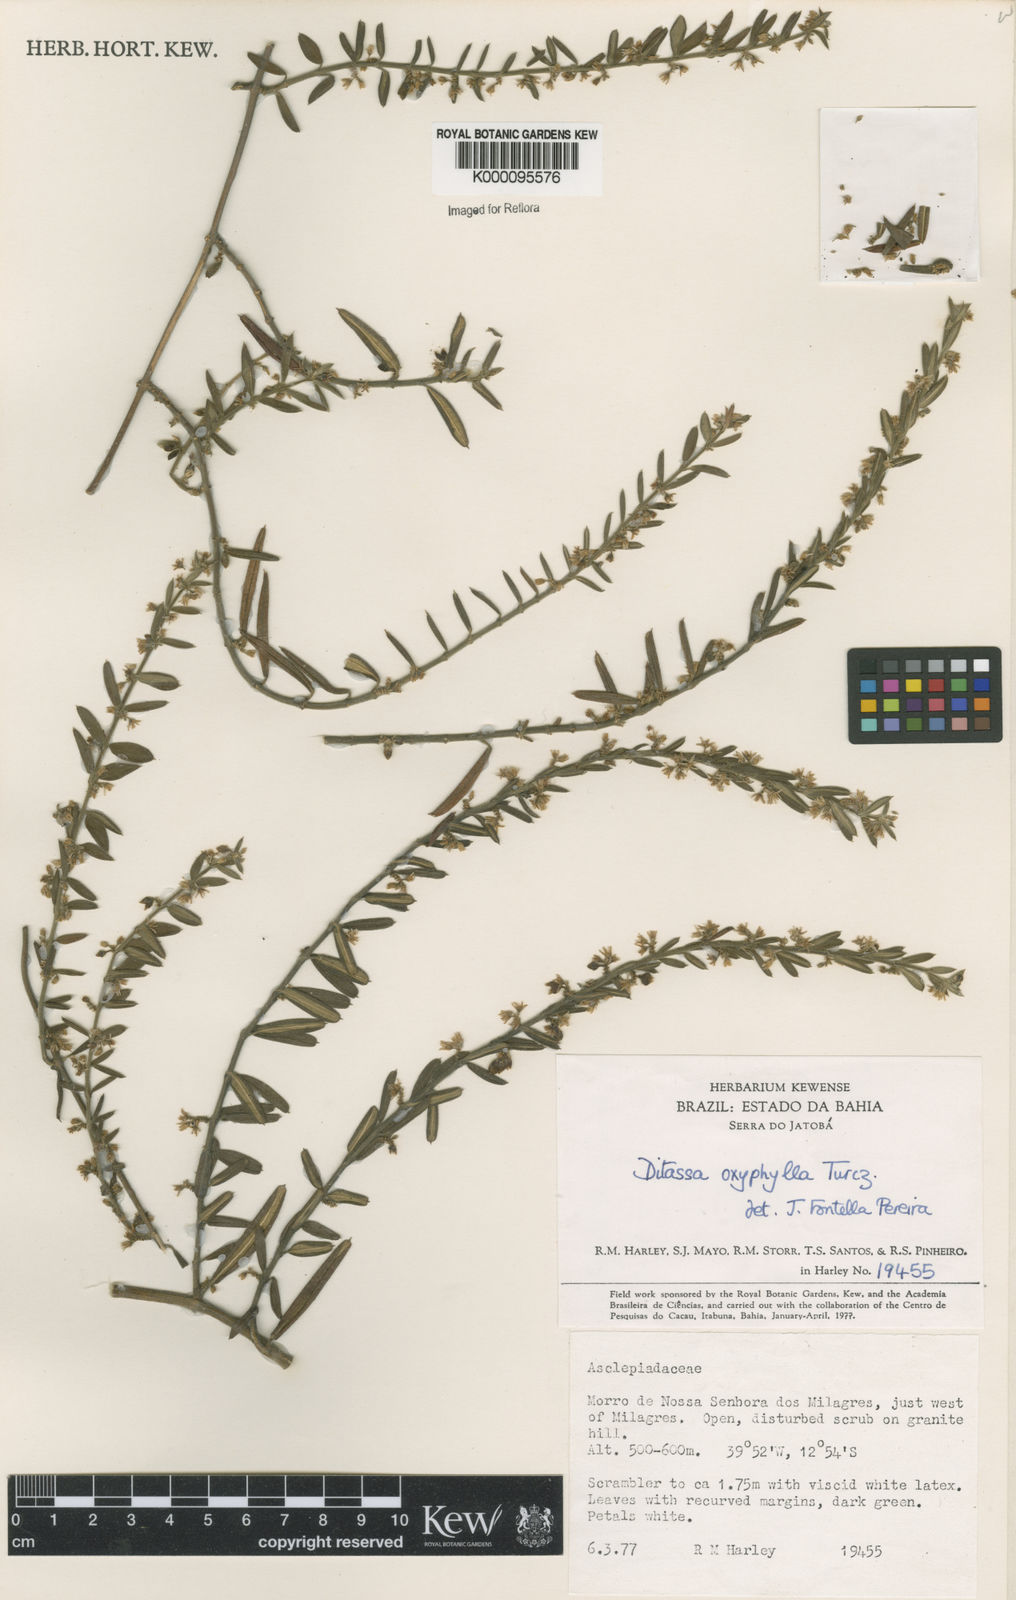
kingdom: Plantae
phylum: Tracheophyta
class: Magnoliopsida
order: Gentianales
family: Apocynaceae
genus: Ditassa
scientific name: Ditassa oxyphylla
